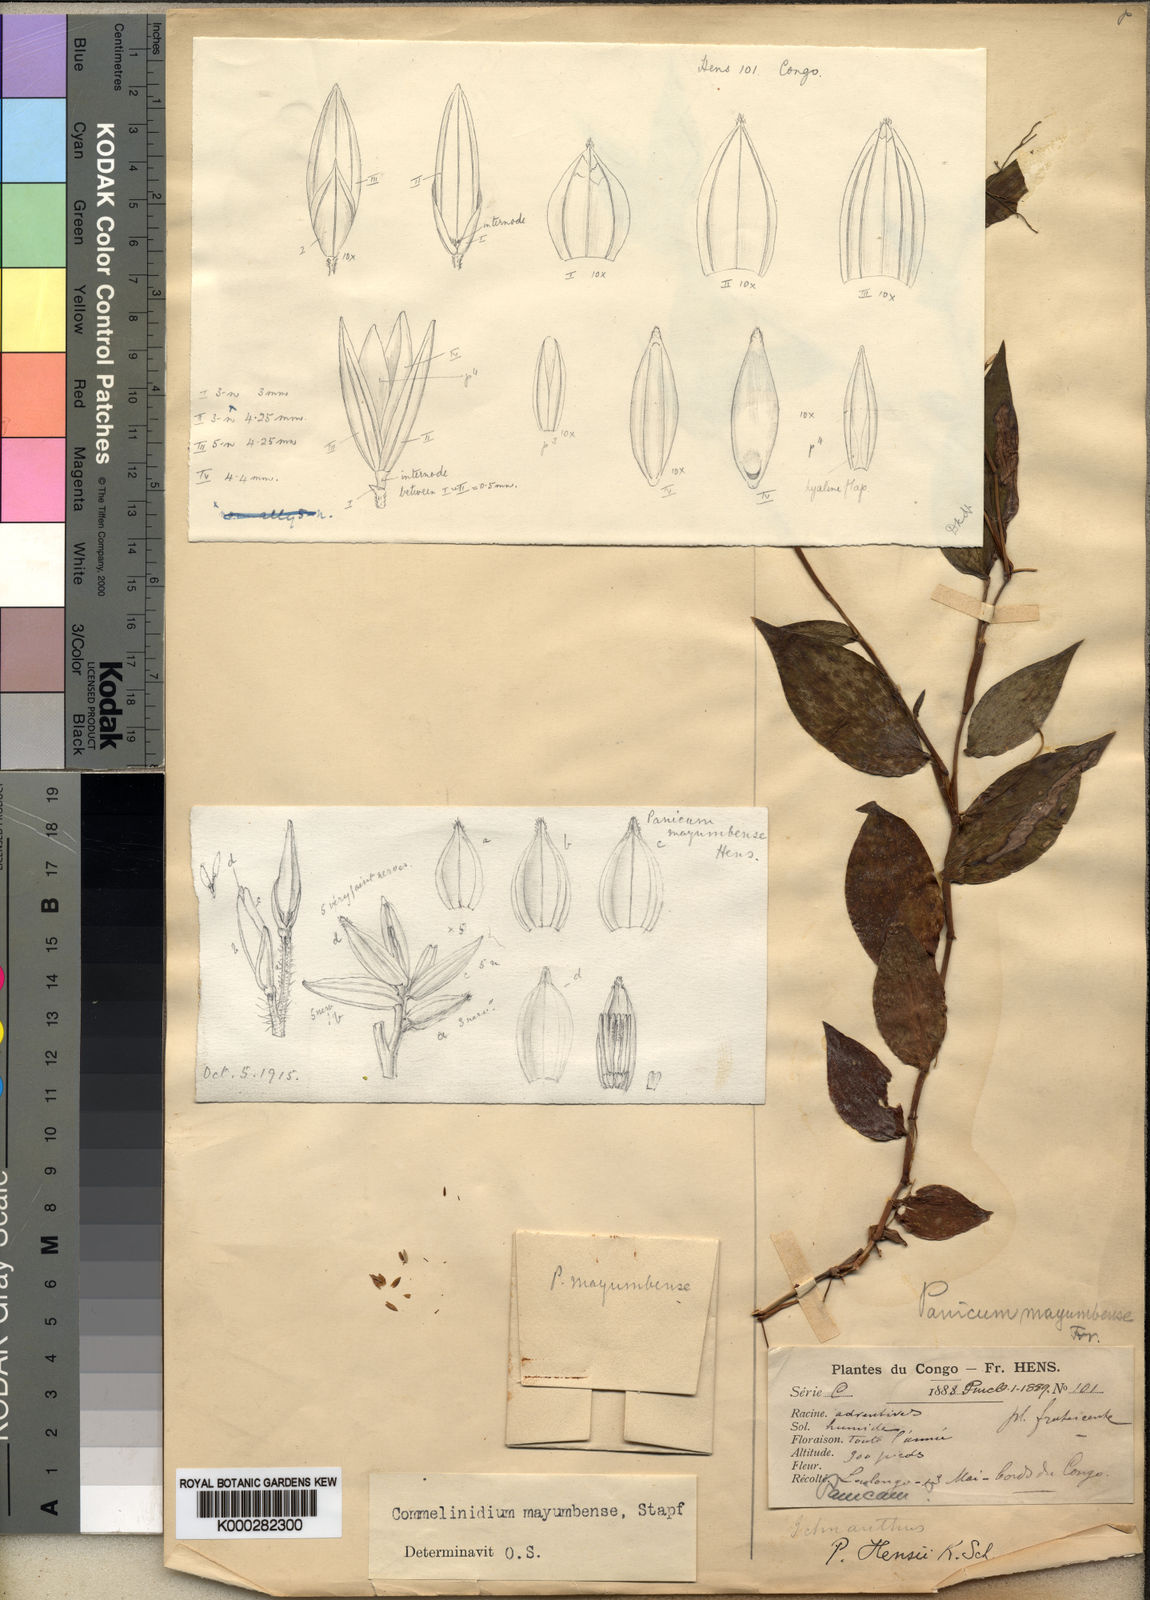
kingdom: Plantae
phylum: Tracheophyta
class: Liliopsida
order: Poales
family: Poaceae
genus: Acroceras
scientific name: Acroceras gabunense
